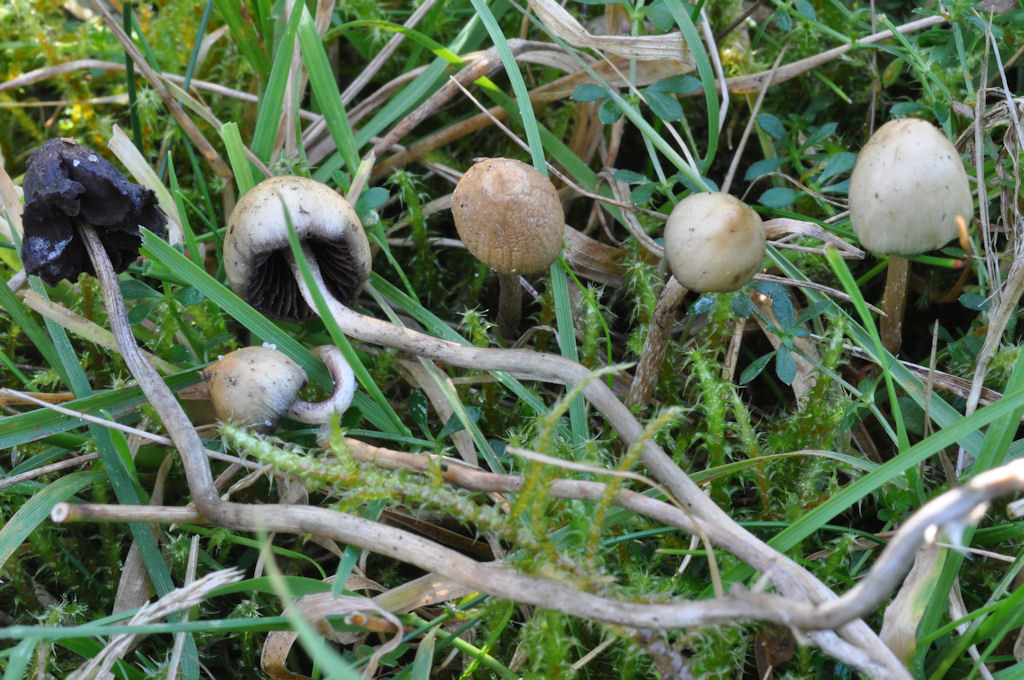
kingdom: Fungi
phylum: Basidiomycota
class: Agaricomycetes
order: Agaricales
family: Hymenogastraceae
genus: Psilocybe
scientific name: Psilocybe semilanceata
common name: spids nøgenhat
